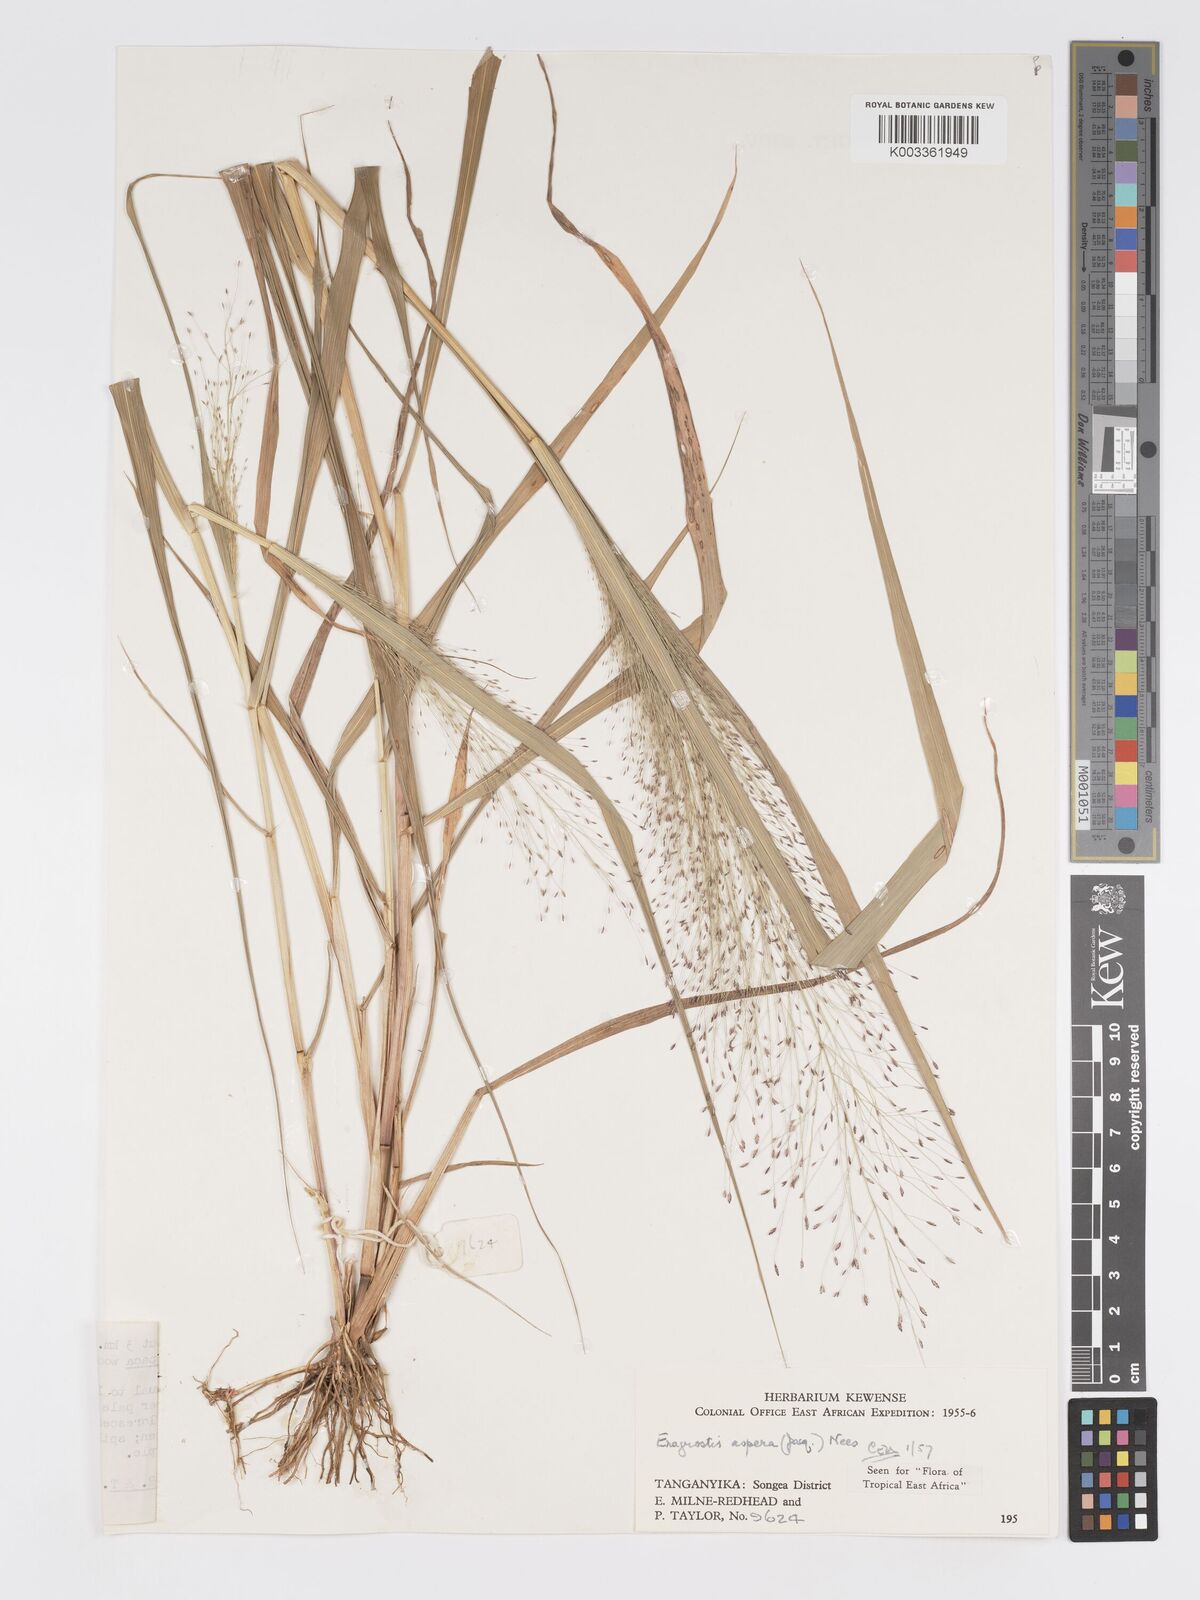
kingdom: Plantae
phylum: Tracheophyta
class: Liliopsida
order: Poales
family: Poaceae
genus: Eragrostis
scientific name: Eragrostis aspera
